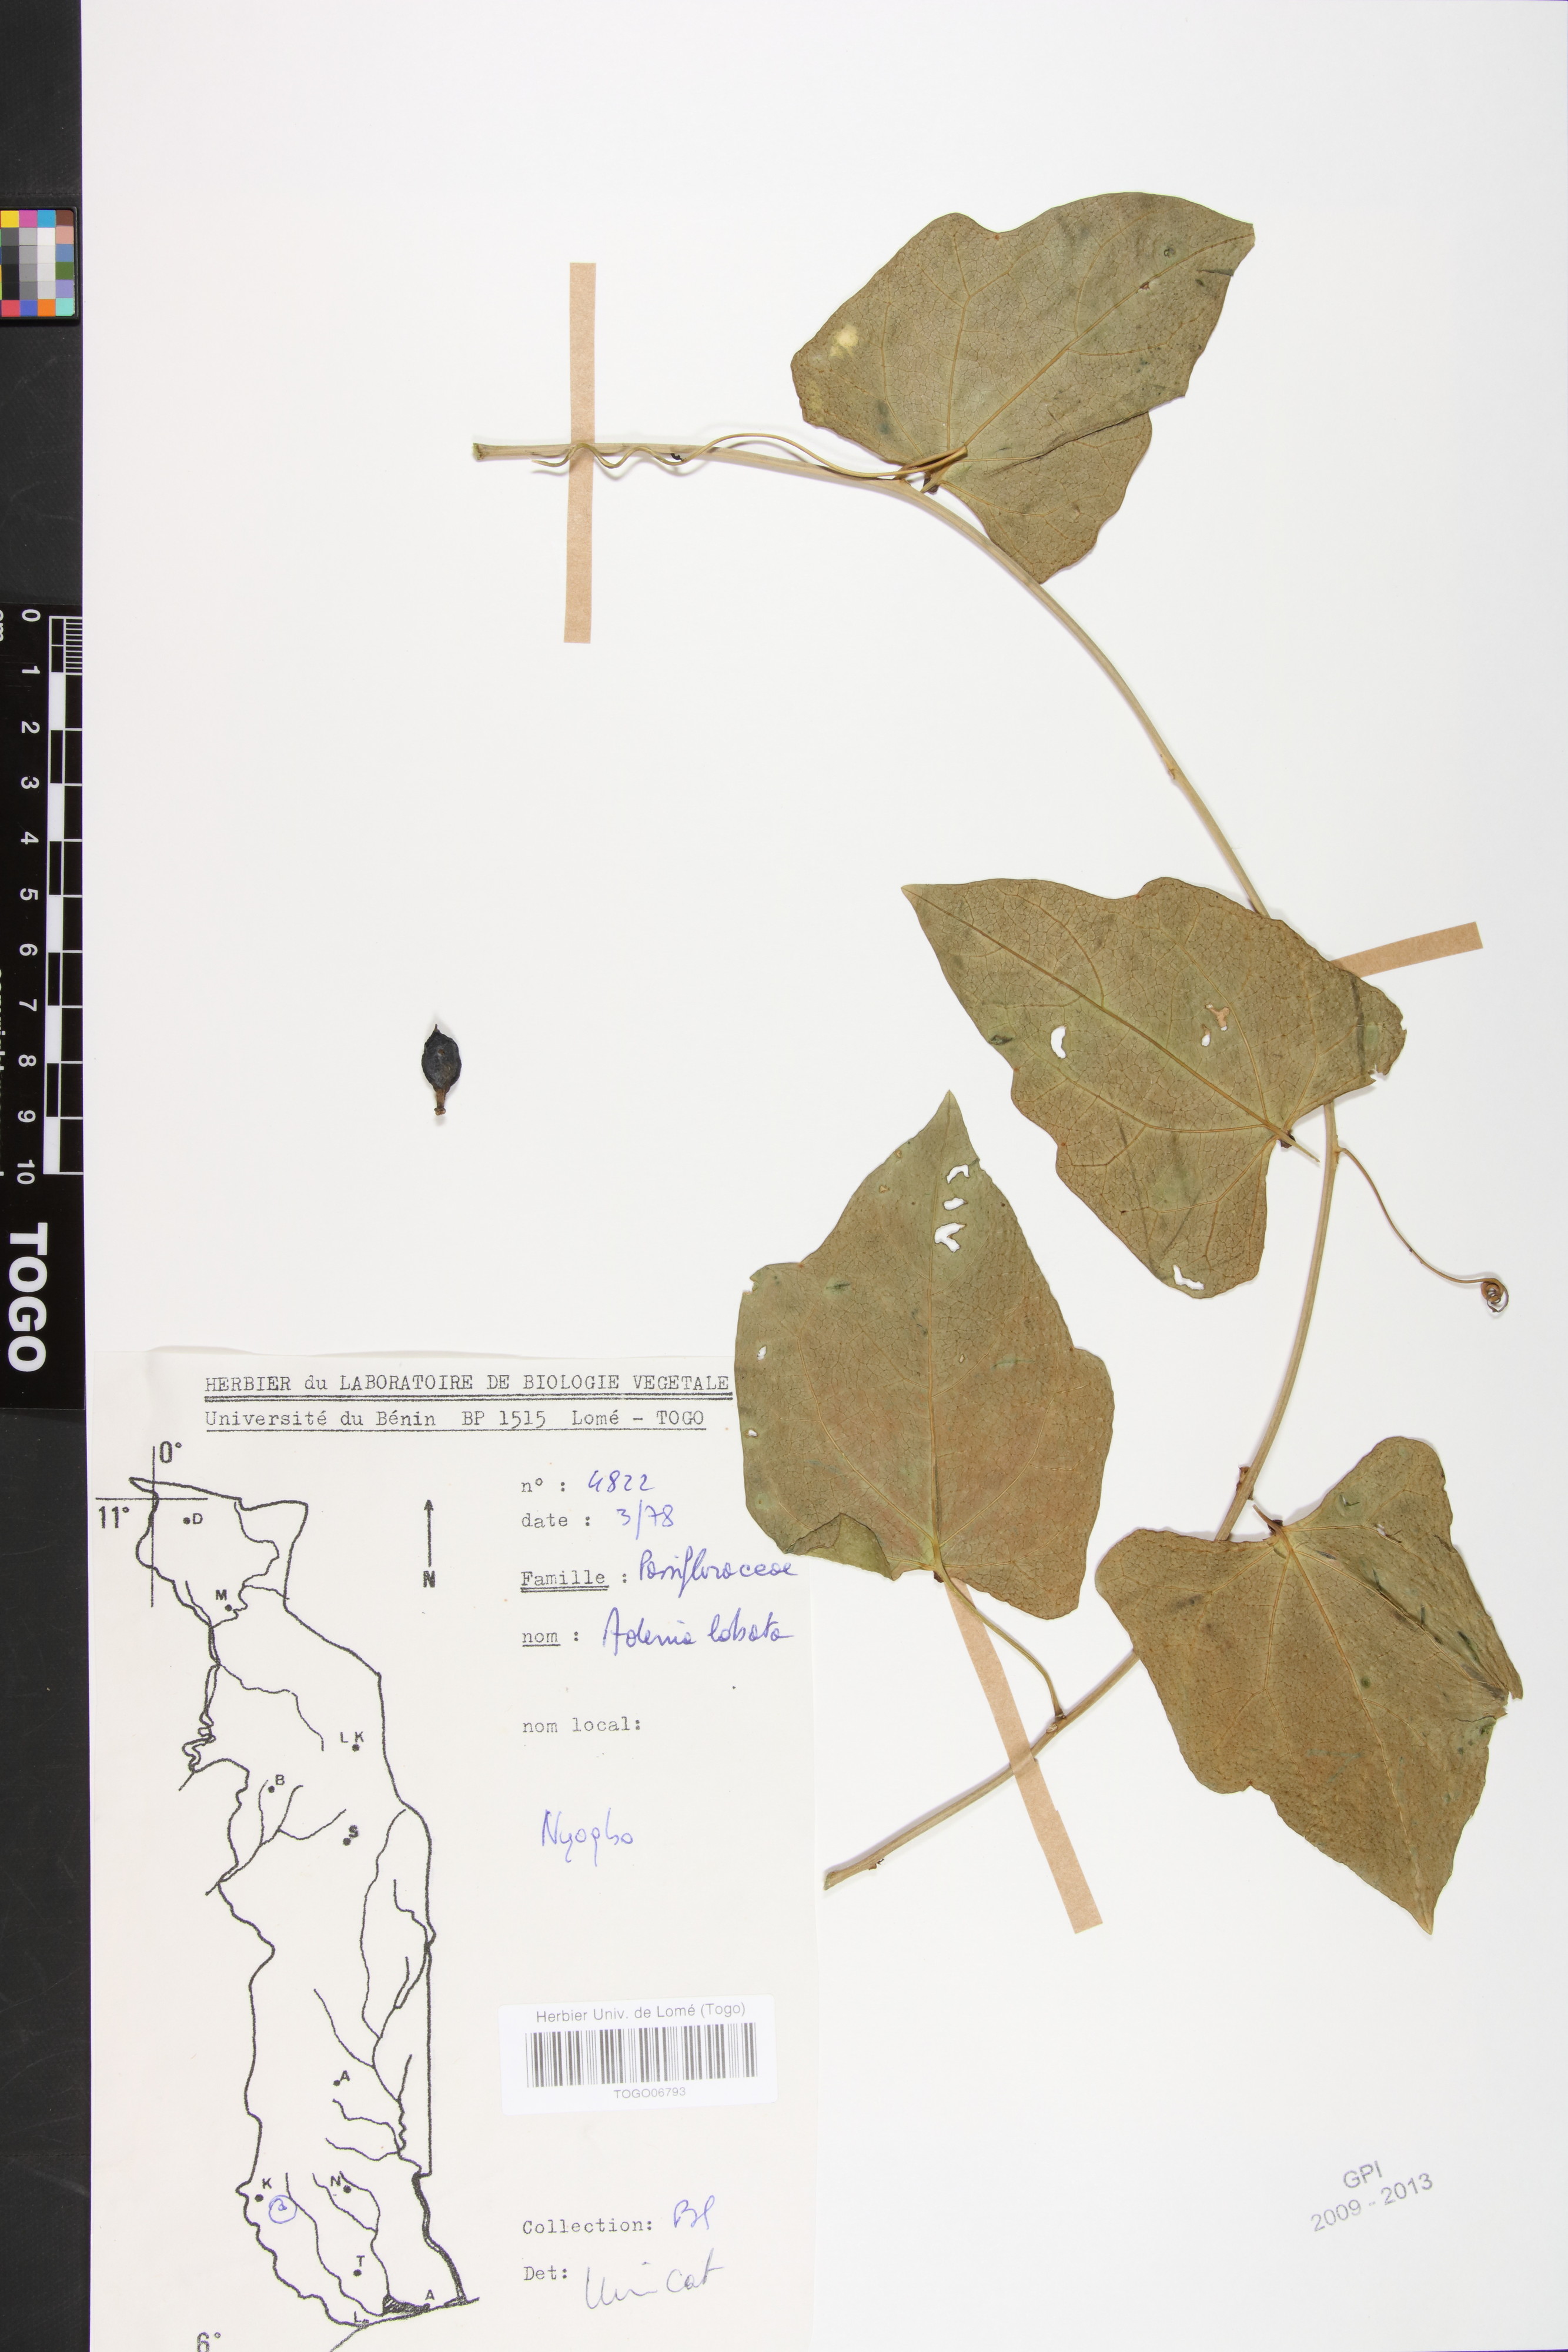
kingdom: Plantae
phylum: Tracheophyta
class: Magnoliopsida
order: Malpighiales
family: Passifloraceae
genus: Adenia
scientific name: Adenia lobata
